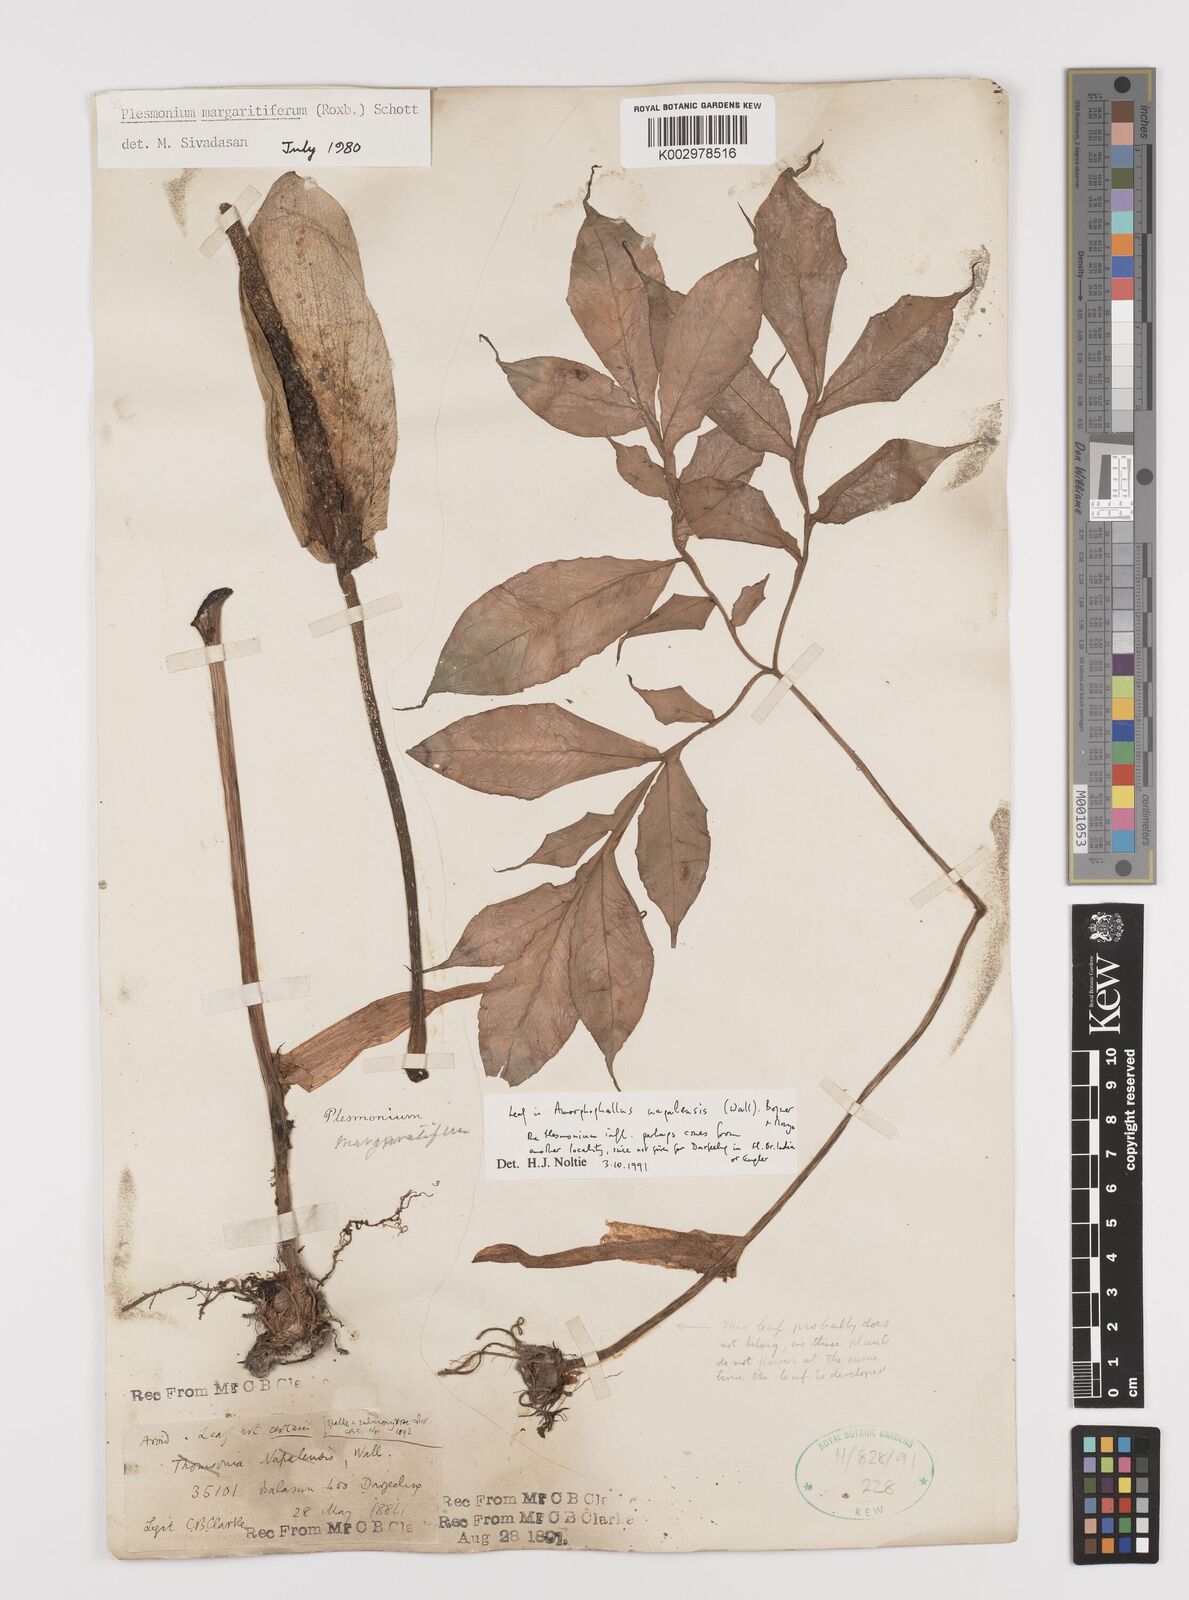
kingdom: Plantae
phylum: Tracheophyta
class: Liliopsida
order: Alismatales
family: Araceae
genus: Amorphophallus
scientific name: Amorphophallus margaritifer
